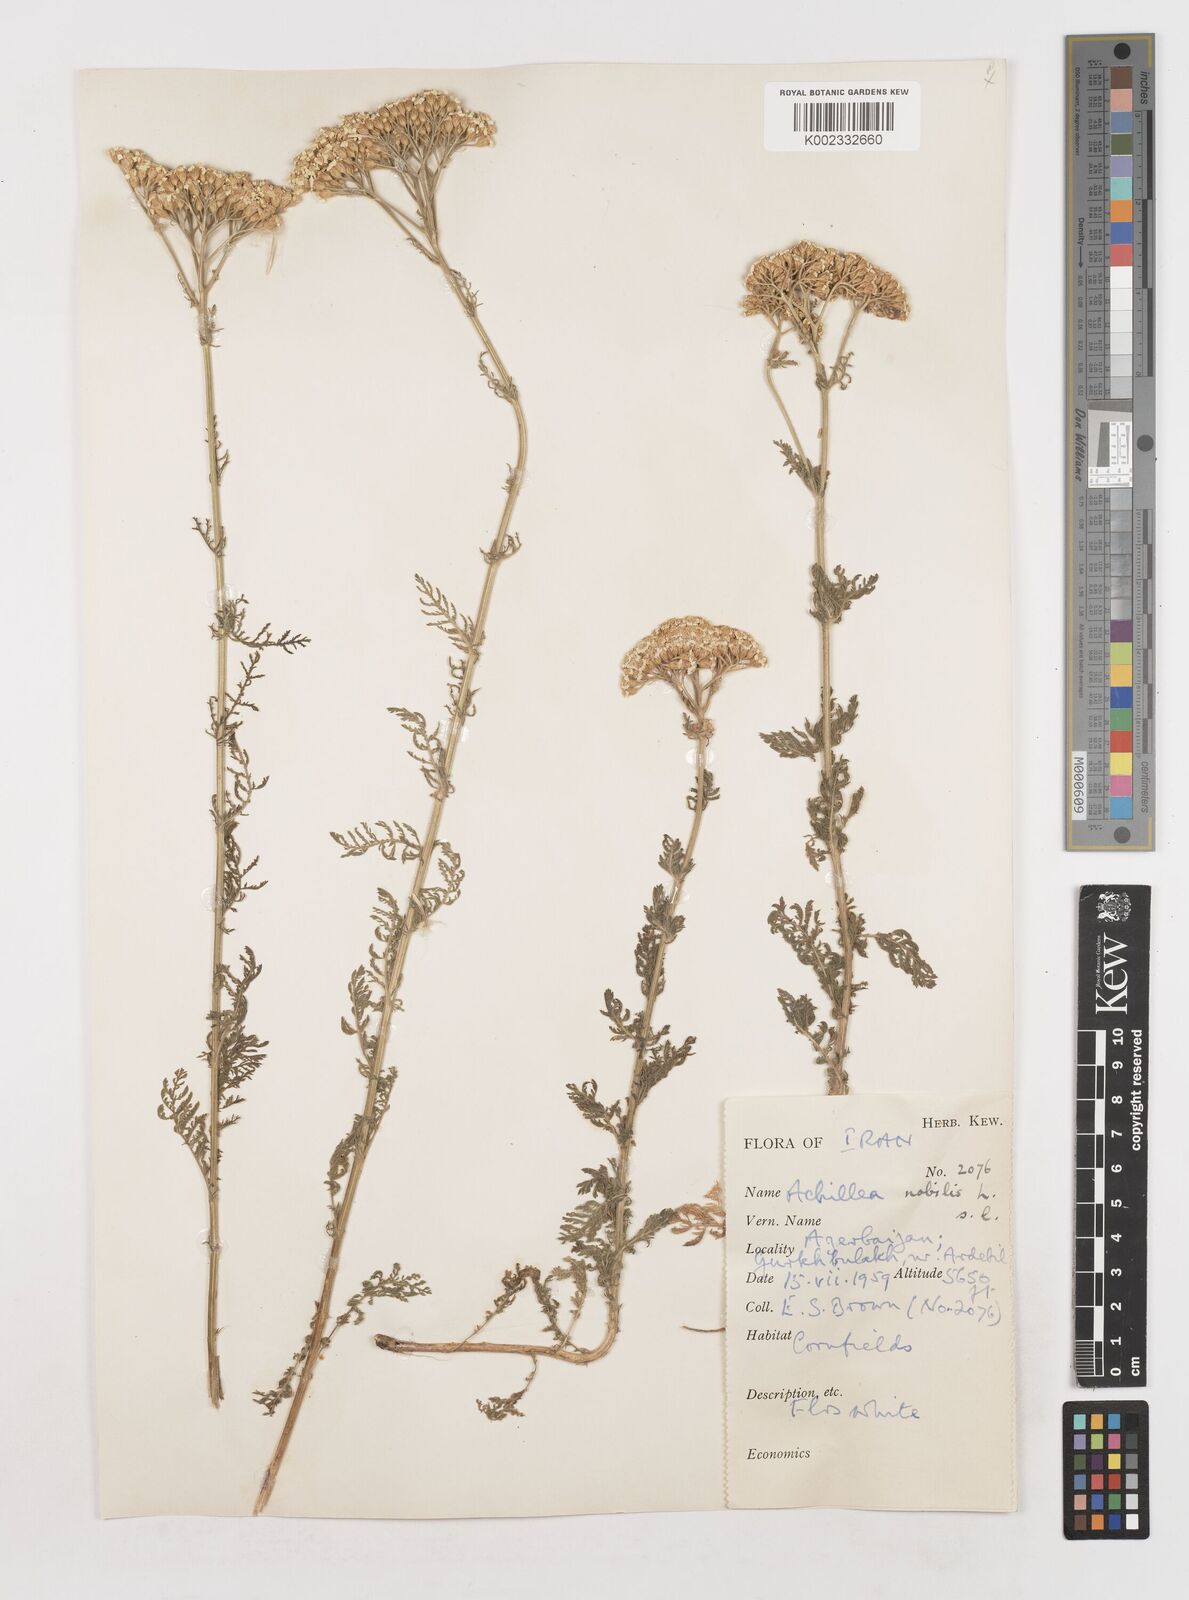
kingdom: Plantae
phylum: Tracheophyta
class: Magnoliopsida
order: Asterales
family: Asteraceae
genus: Achillea
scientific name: Achillea nobilis
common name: Noble yarrow
